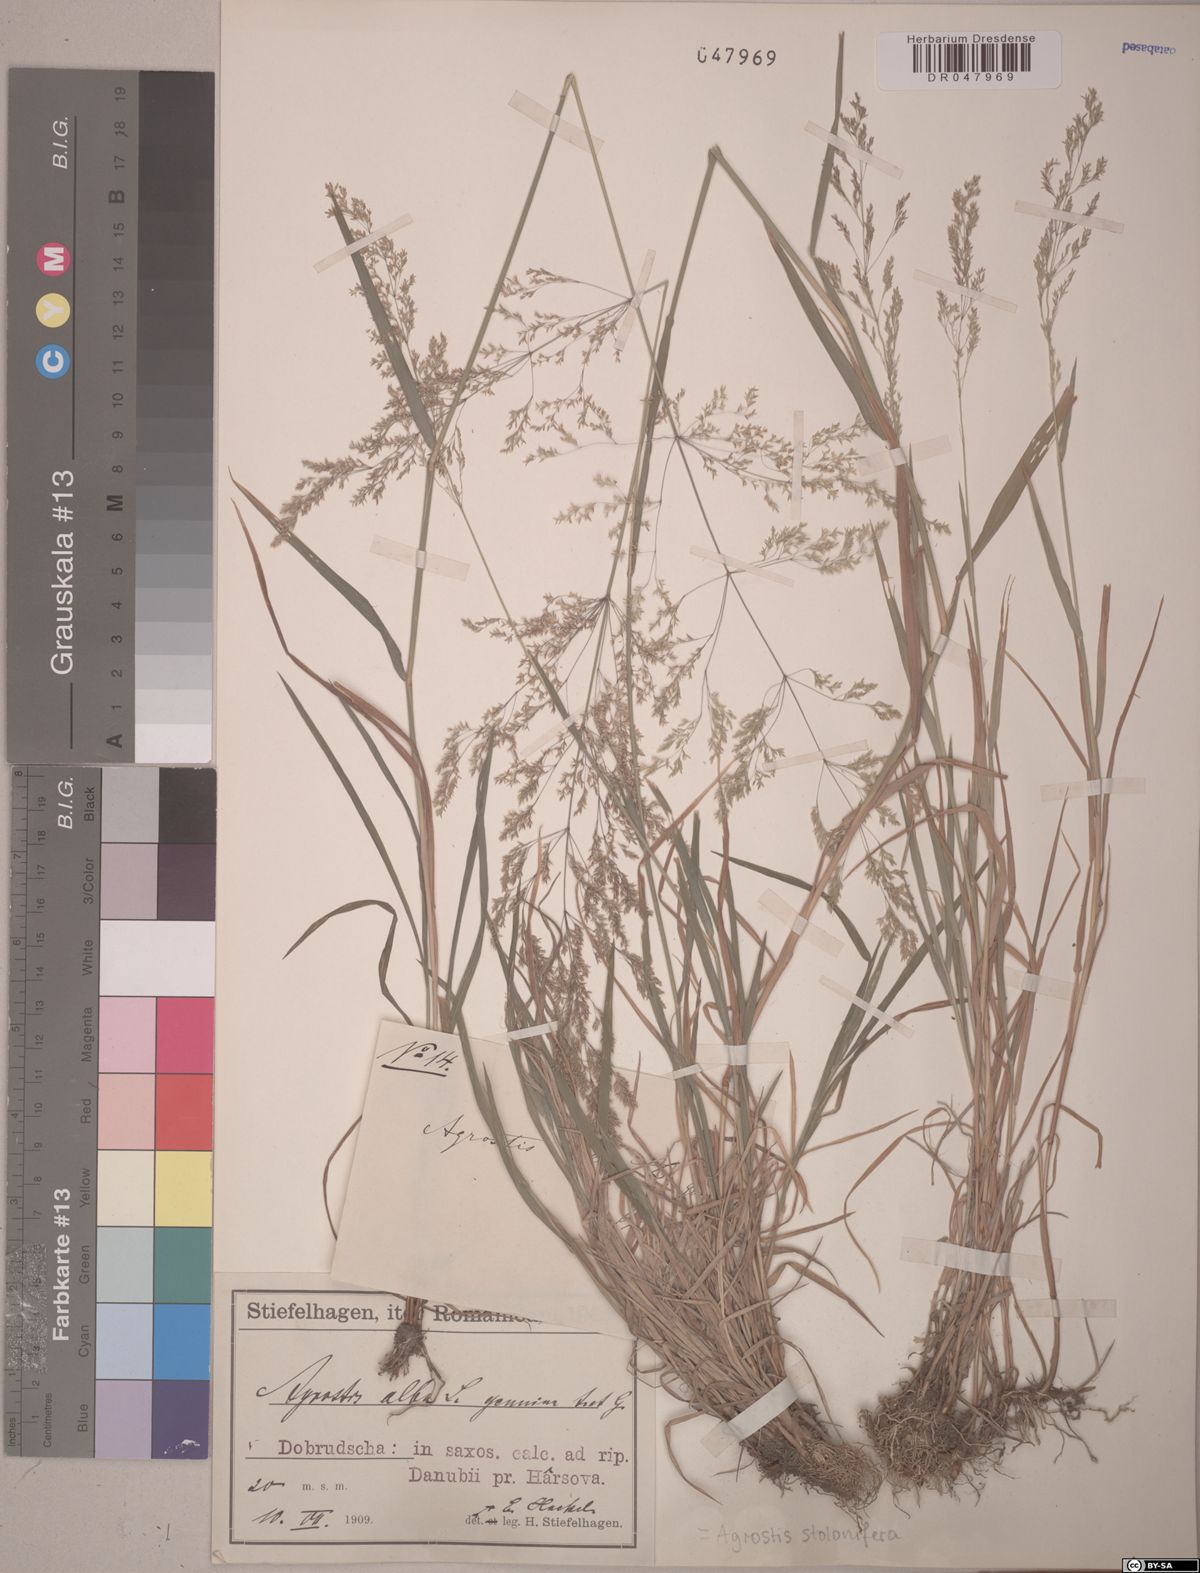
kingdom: Plantae
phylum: Tracheophyta
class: Liliopsida
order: Poales
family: Poaceae
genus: Agrostis
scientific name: Agrostis stolonifera
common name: Creeping bentgrass
